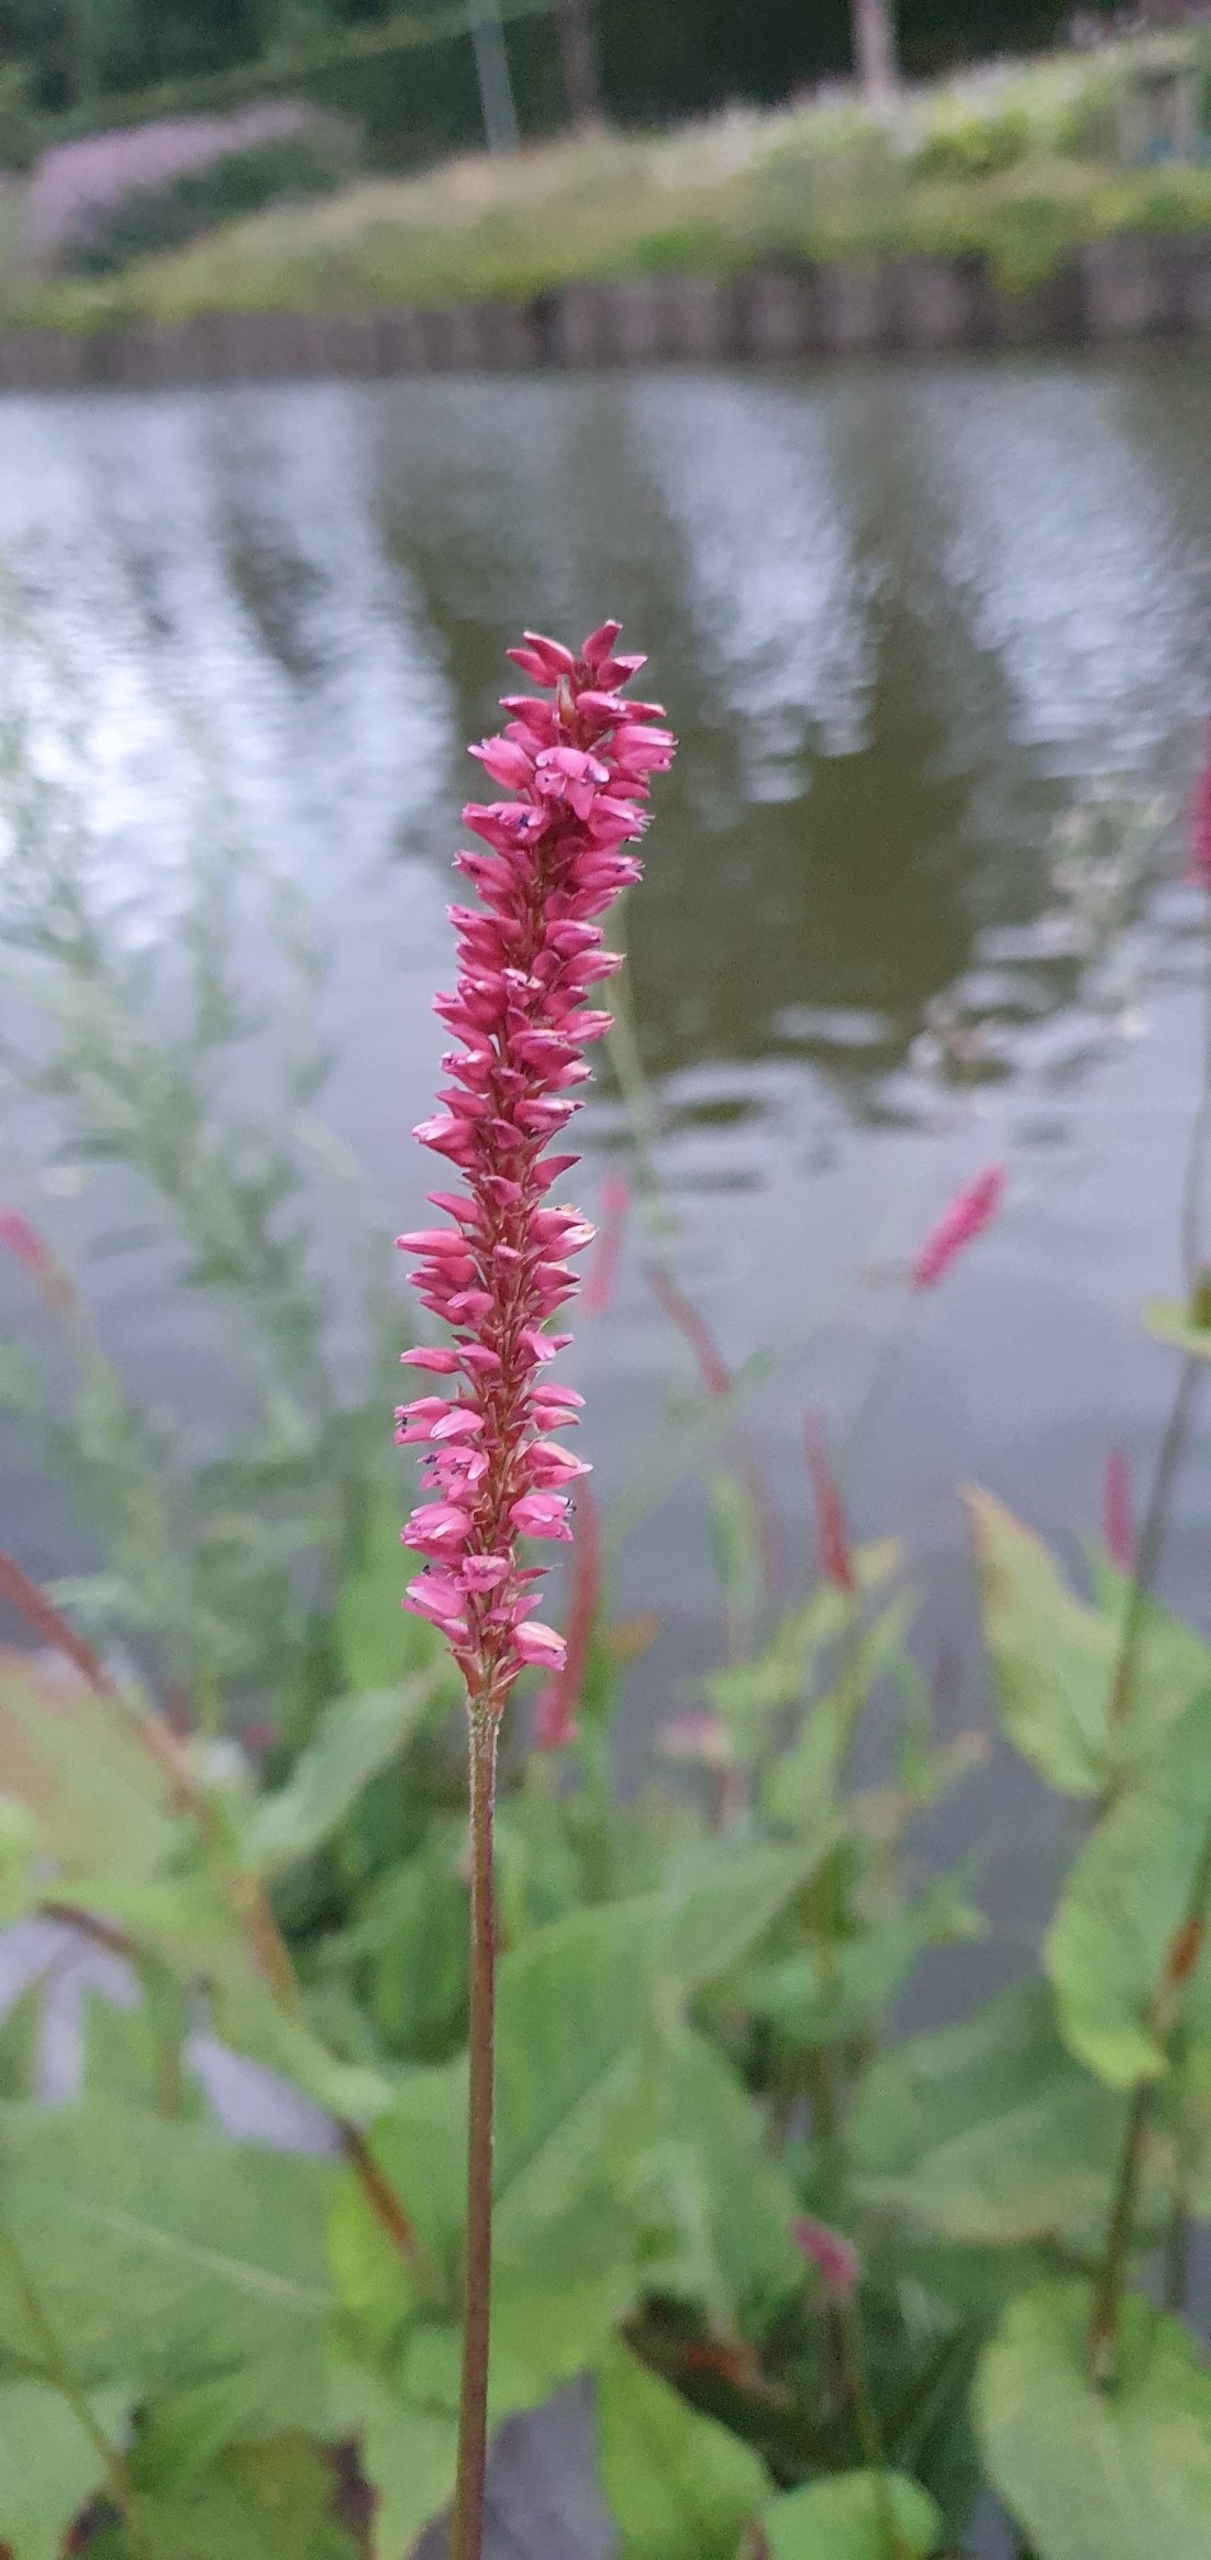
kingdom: Plantae
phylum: Tracheophyta
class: Magnoliopsida
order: Caryophyllales
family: Polygonaceae
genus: Bistorta
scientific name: Bistorta amplexicaulis
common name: Kærte-pileurt
